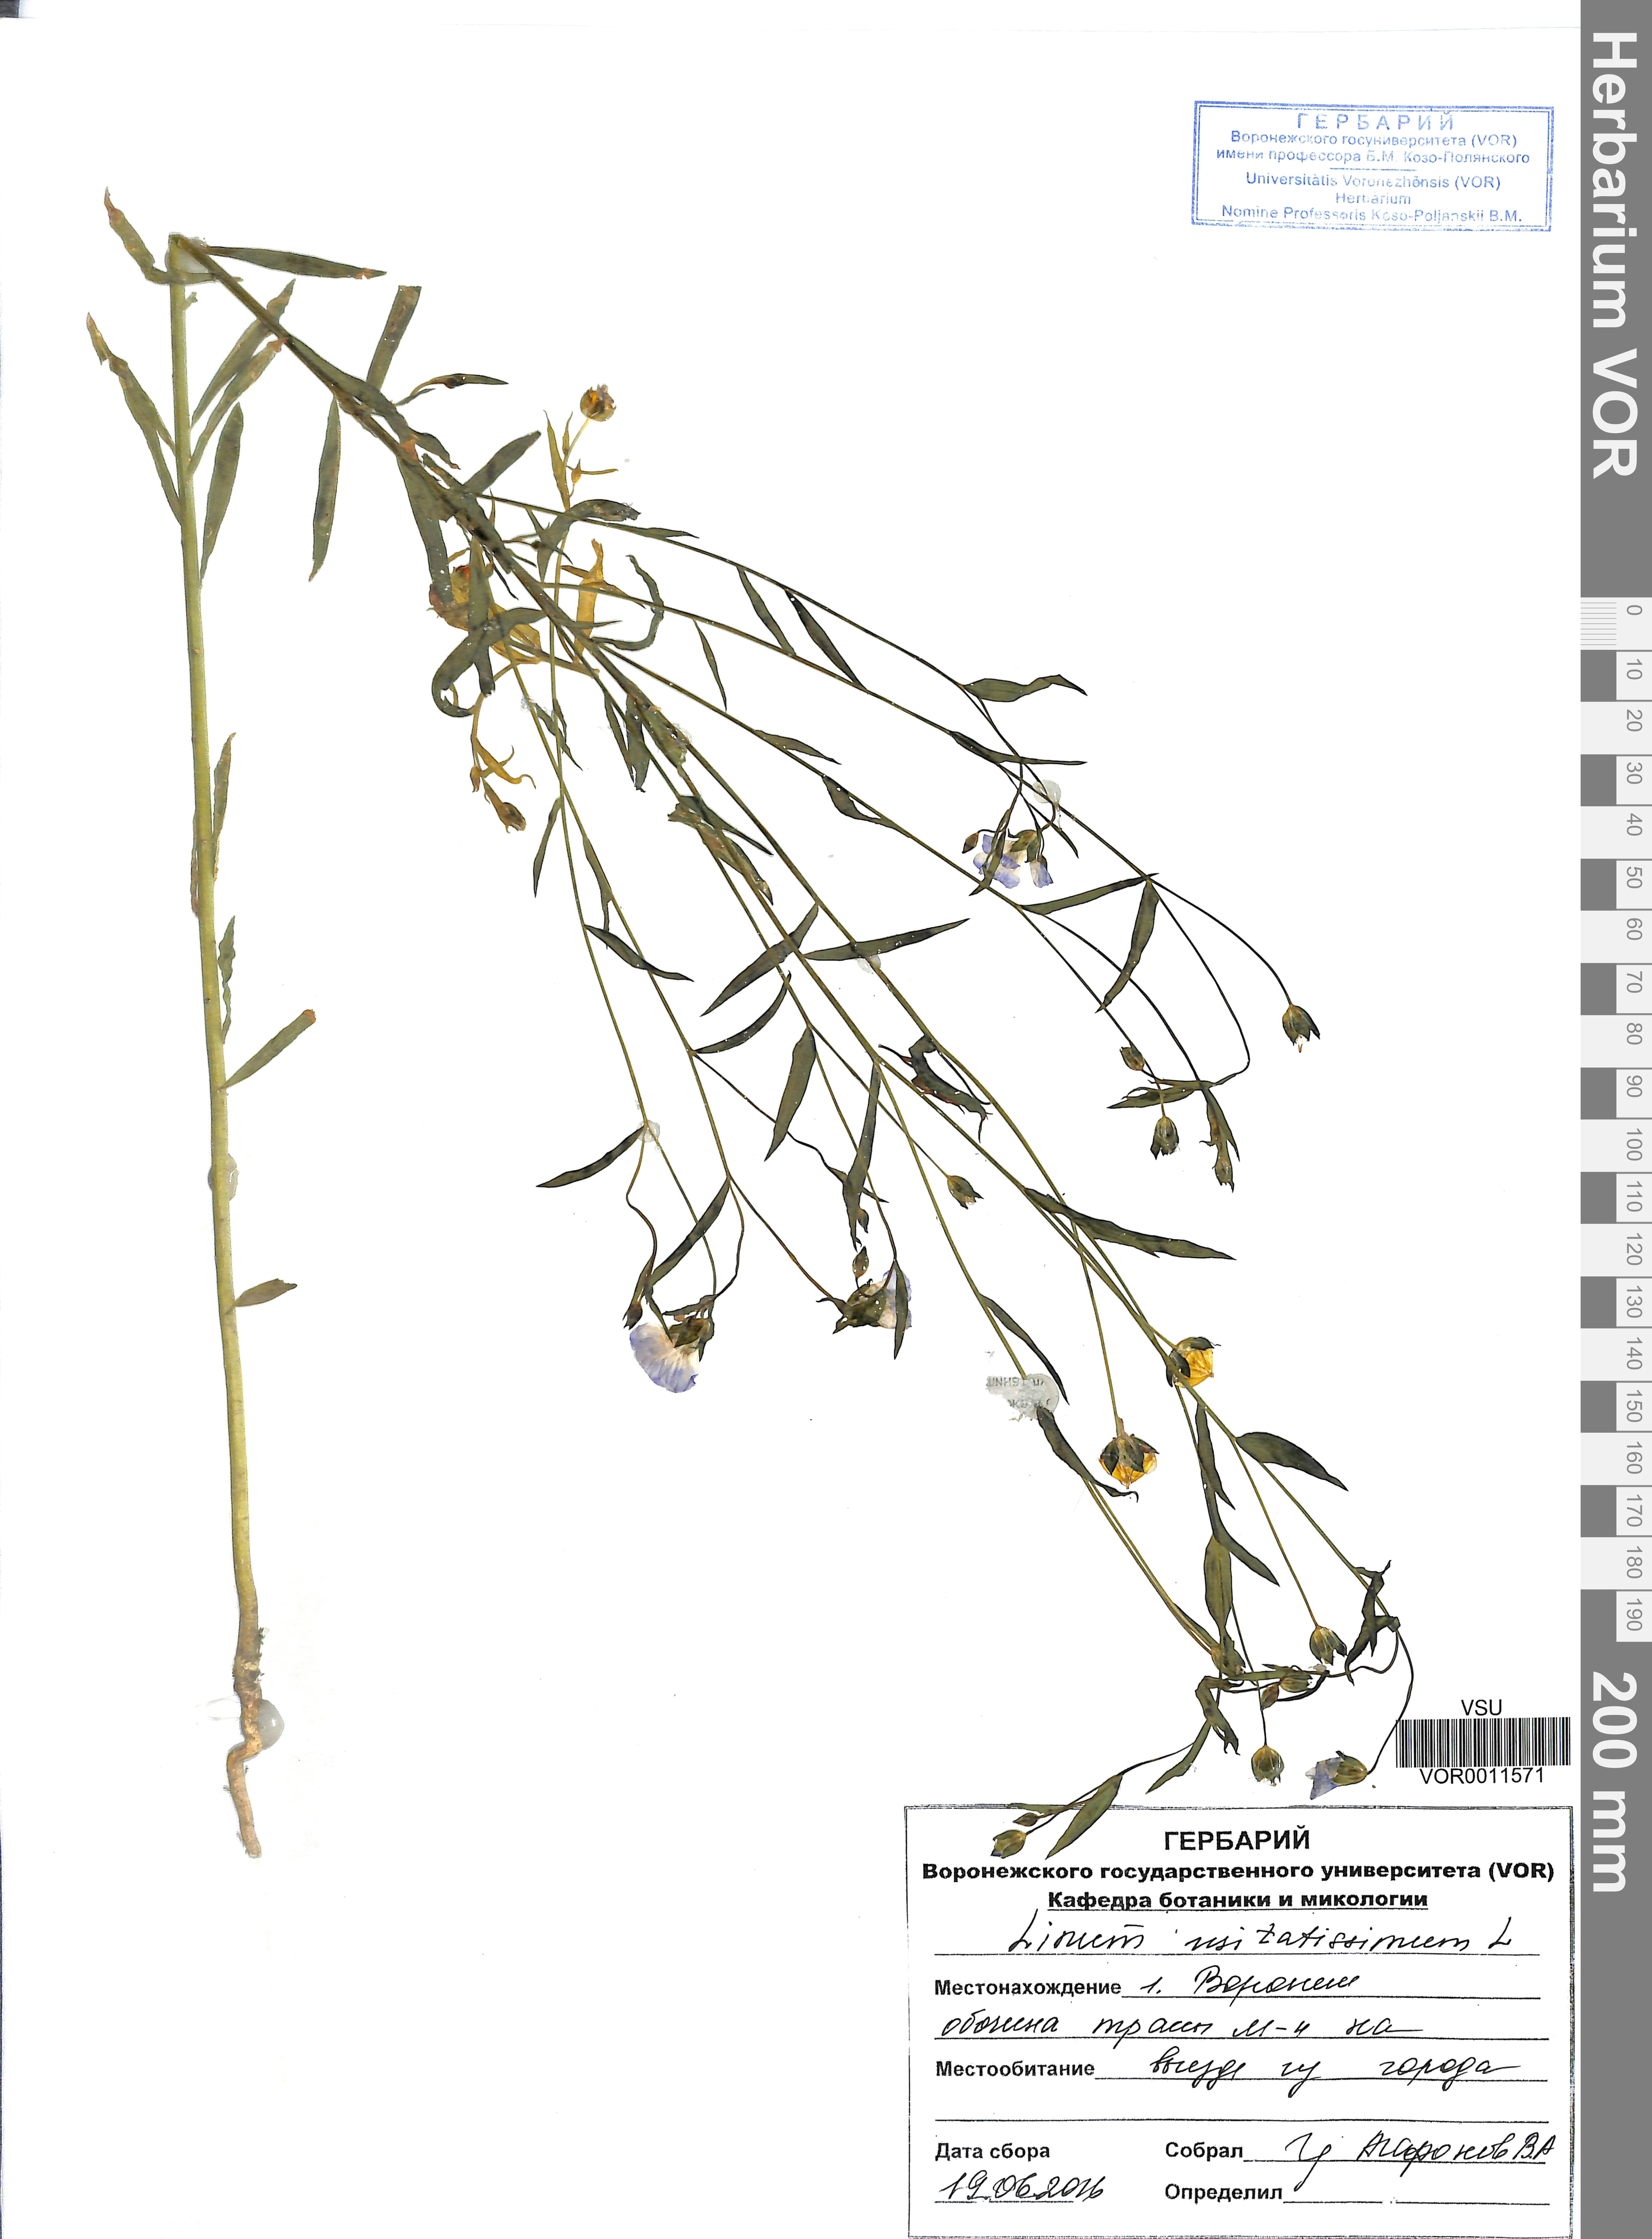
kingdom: Plantae
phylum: Tracheophyta
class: Magnoliopsida
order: Malpighiales
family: Linaceae
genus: Linum
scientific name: Linum usitatissimum
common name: Flax
